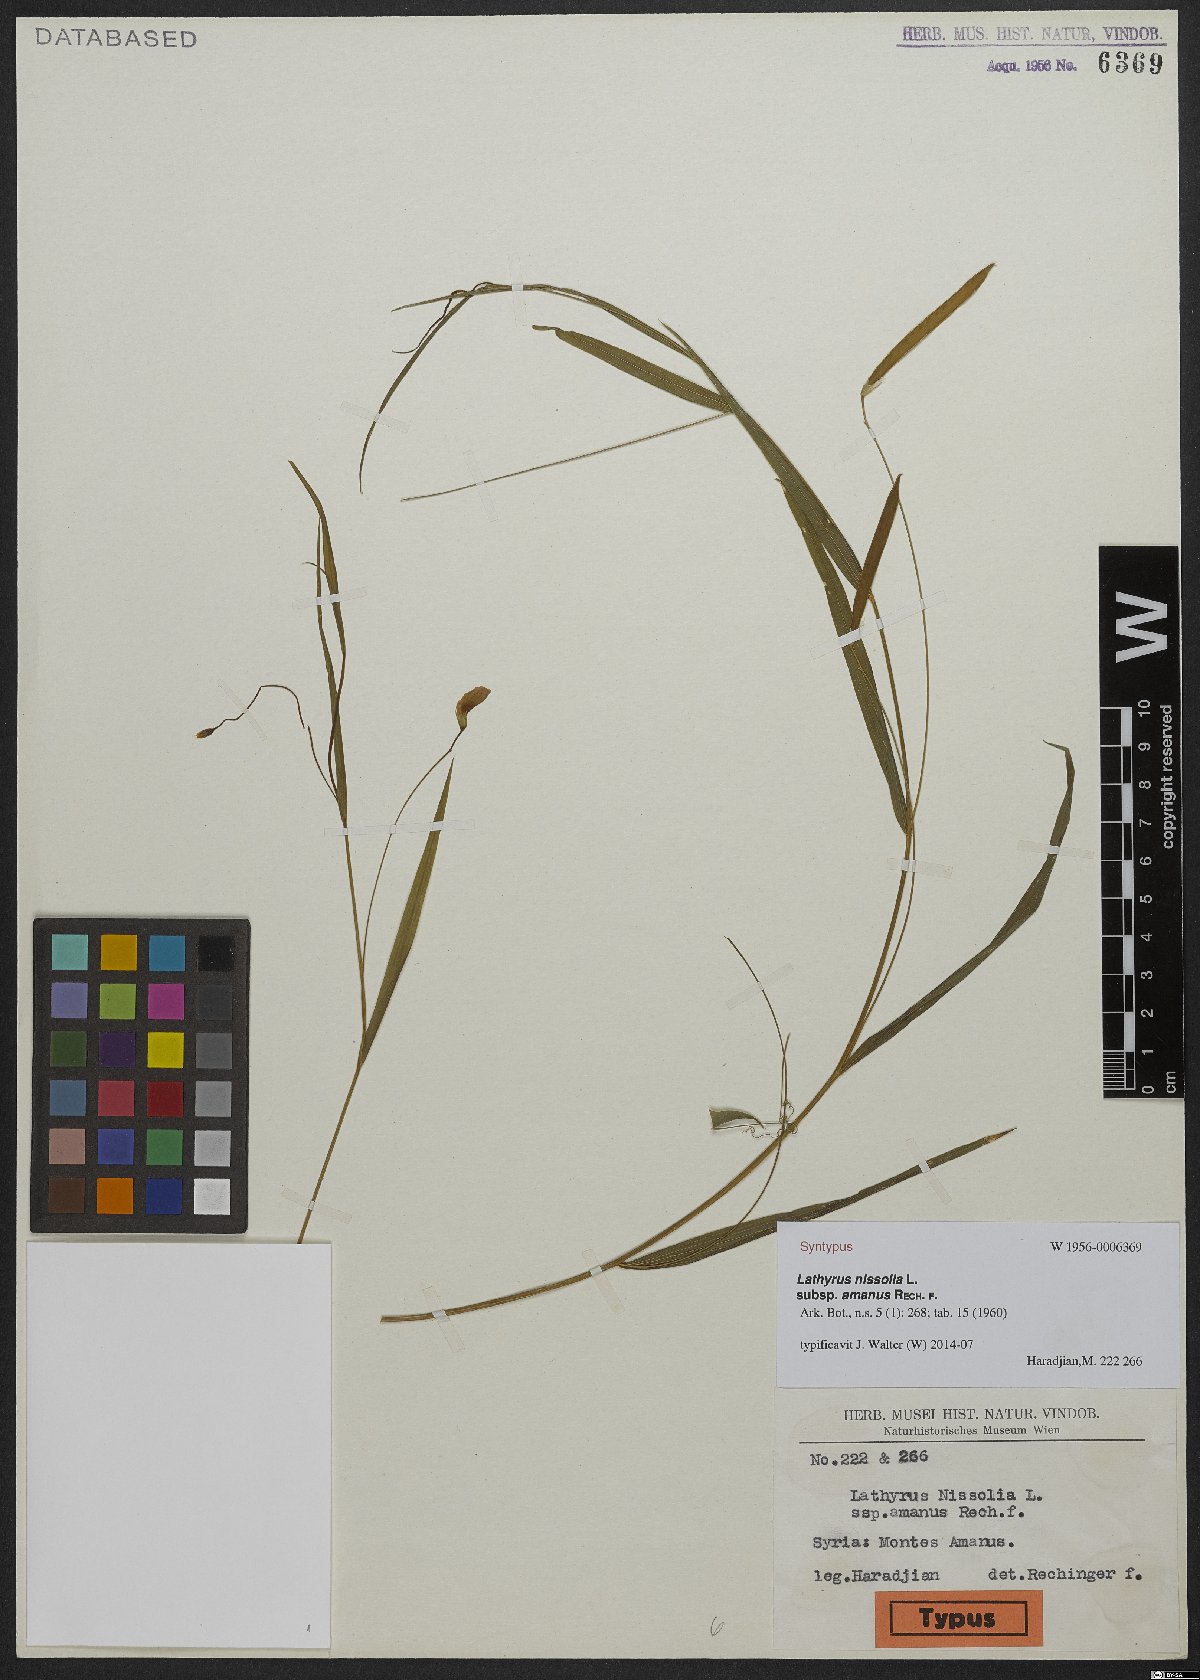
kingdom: Plantae
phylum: Tracheophyta
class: Magnoliopsida
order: Fabales
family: Fabaceae
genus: Lathyrus
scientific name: Lathyrus nissolia
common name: Grass vetchling
